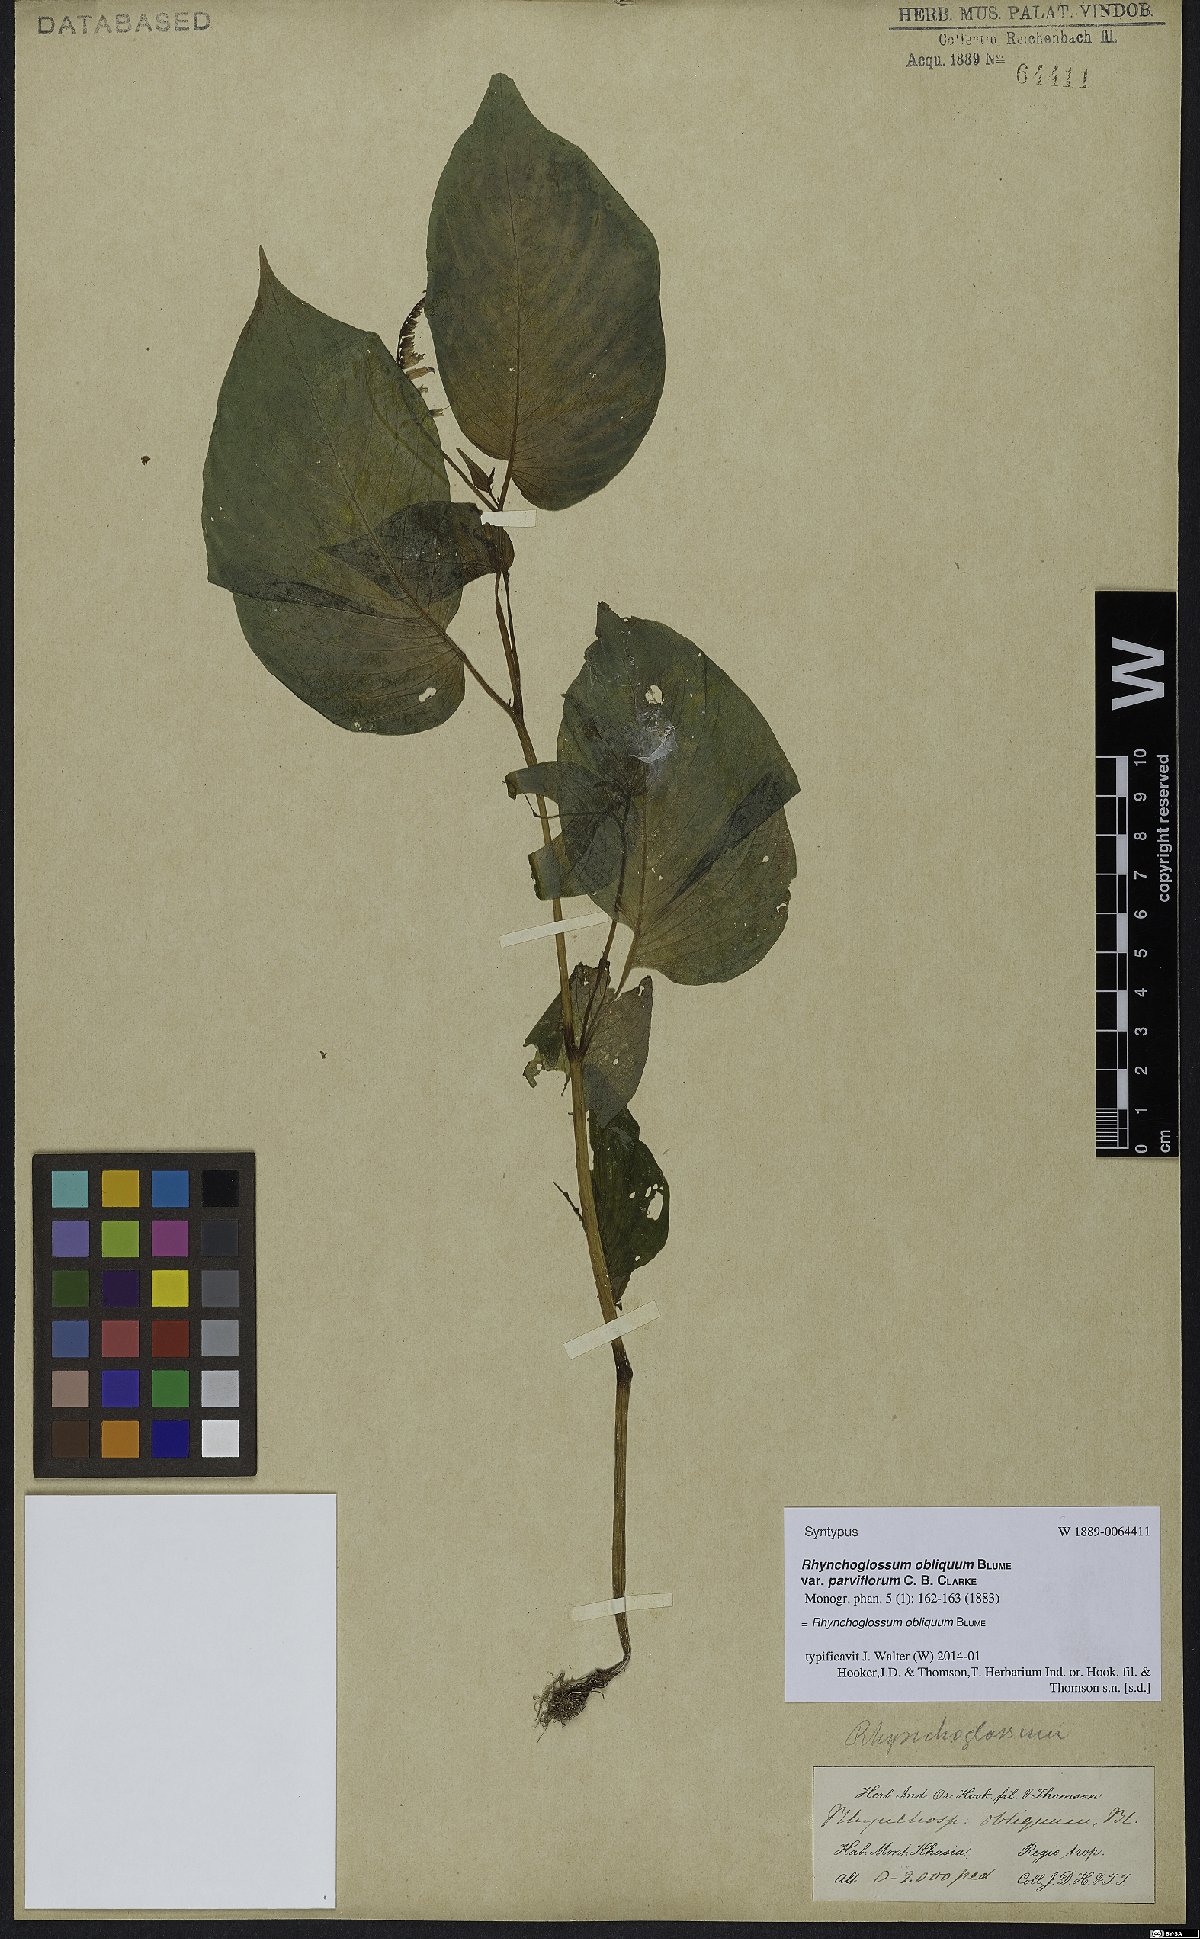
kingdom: Plantae
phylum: Tracheophyta
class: Magnoliopsida
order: Lamiales
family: Gesneriaceae
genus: Rhynchoglossum
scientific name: Rhynchoglossum obliquum
